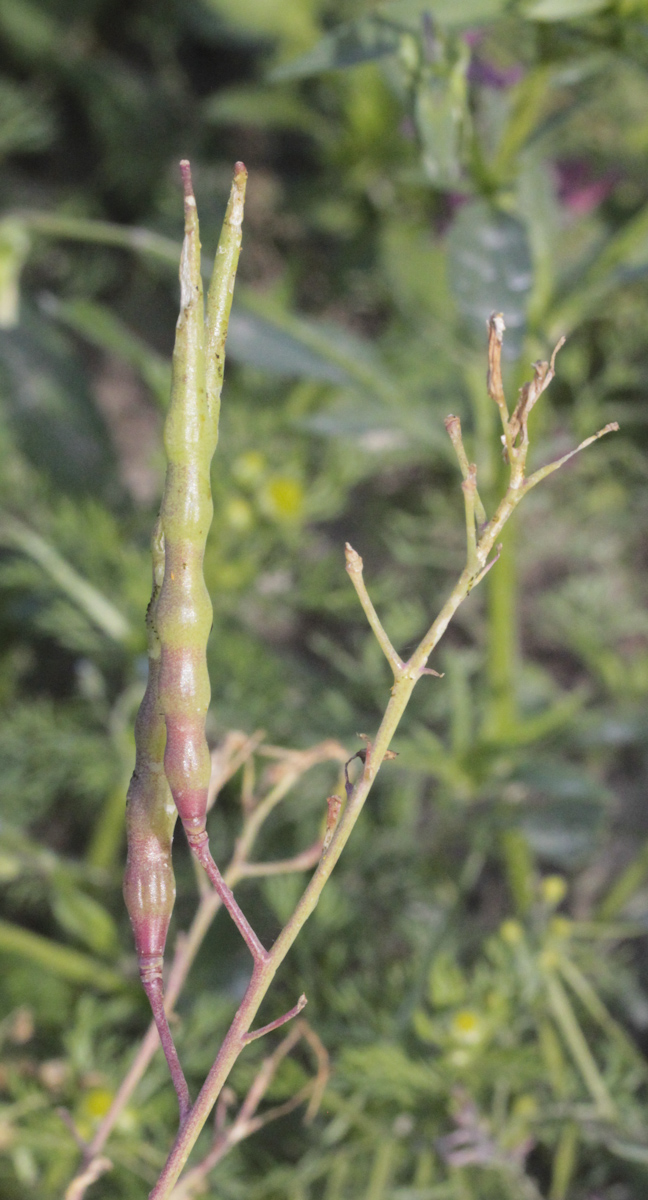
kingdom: Plantae
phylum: Tracheophyta
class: Magnoliopsida
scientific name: Magnoliopsida
